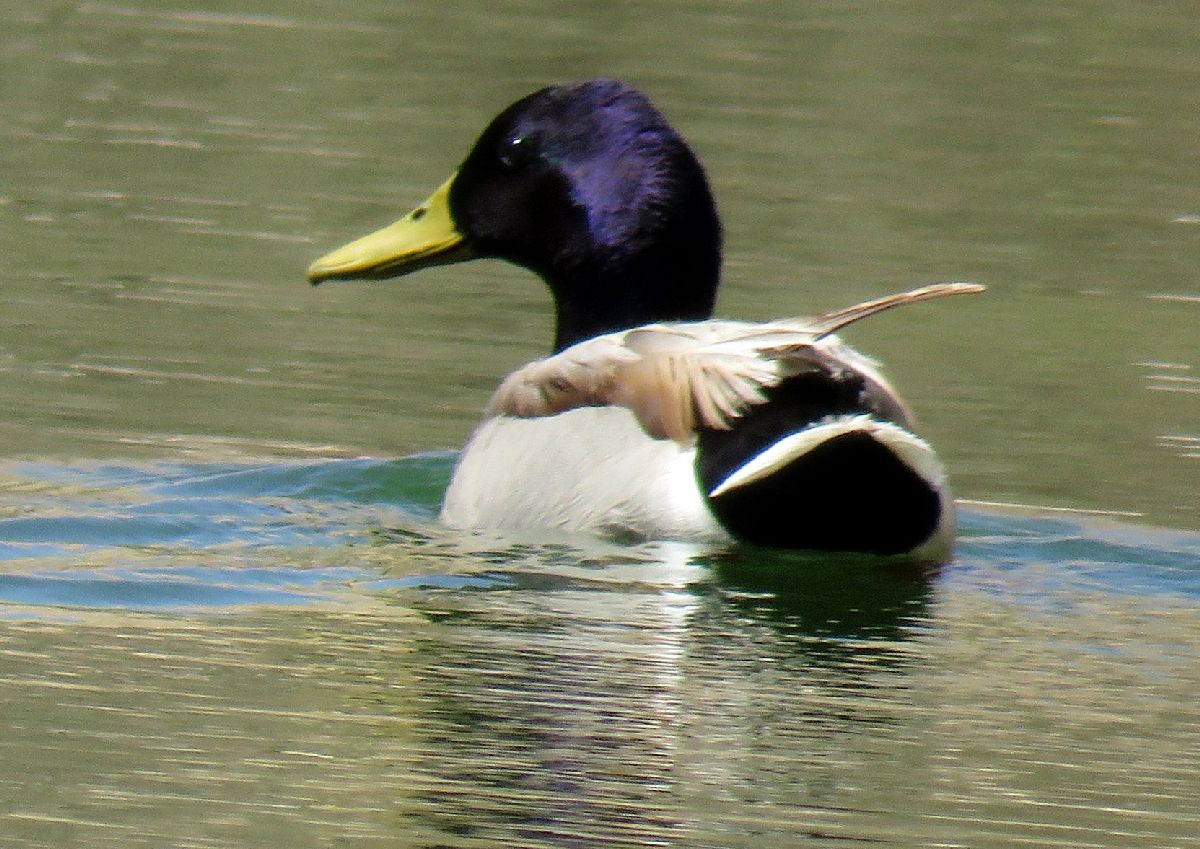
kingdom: Animalia
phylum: Chordata
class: Aves
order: Anseriformes
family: Anatidae
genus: Anas
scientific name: Anas platyrhynchos
